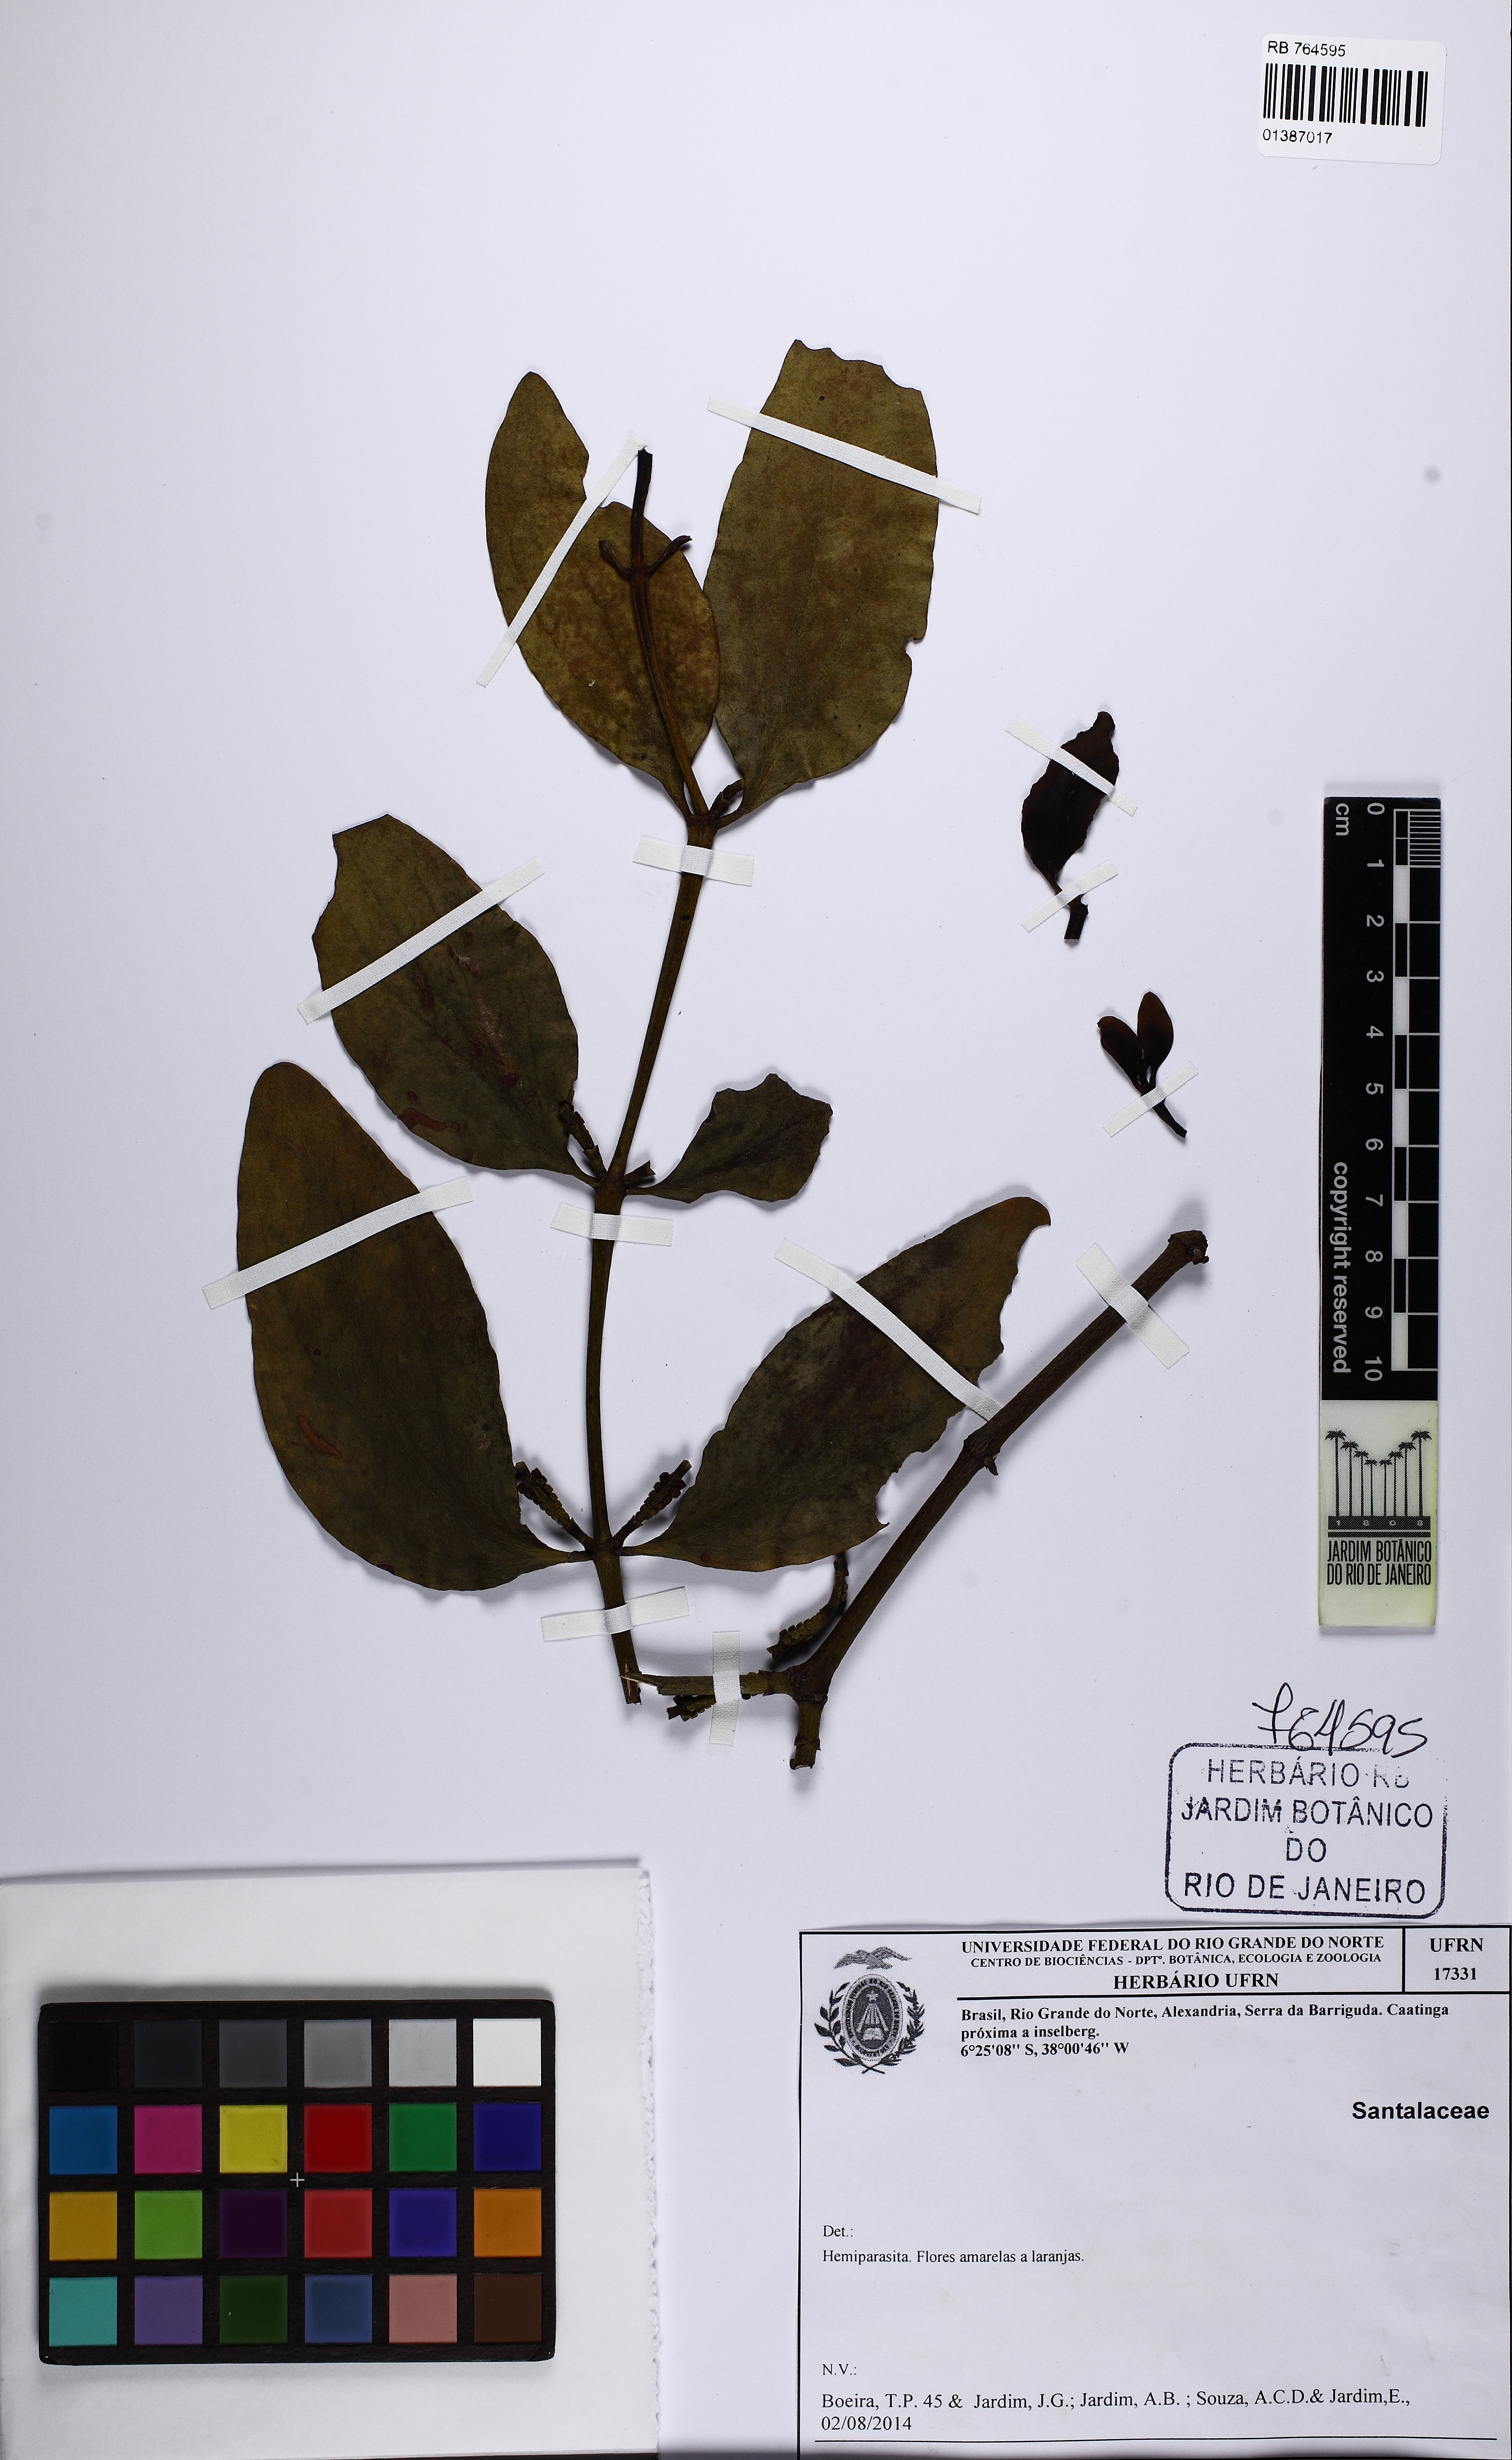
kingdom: Plantae
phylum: Tracheophyta
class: Magnoliopsida
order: Santalales
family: Santalaceae
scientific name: Santalaceae
